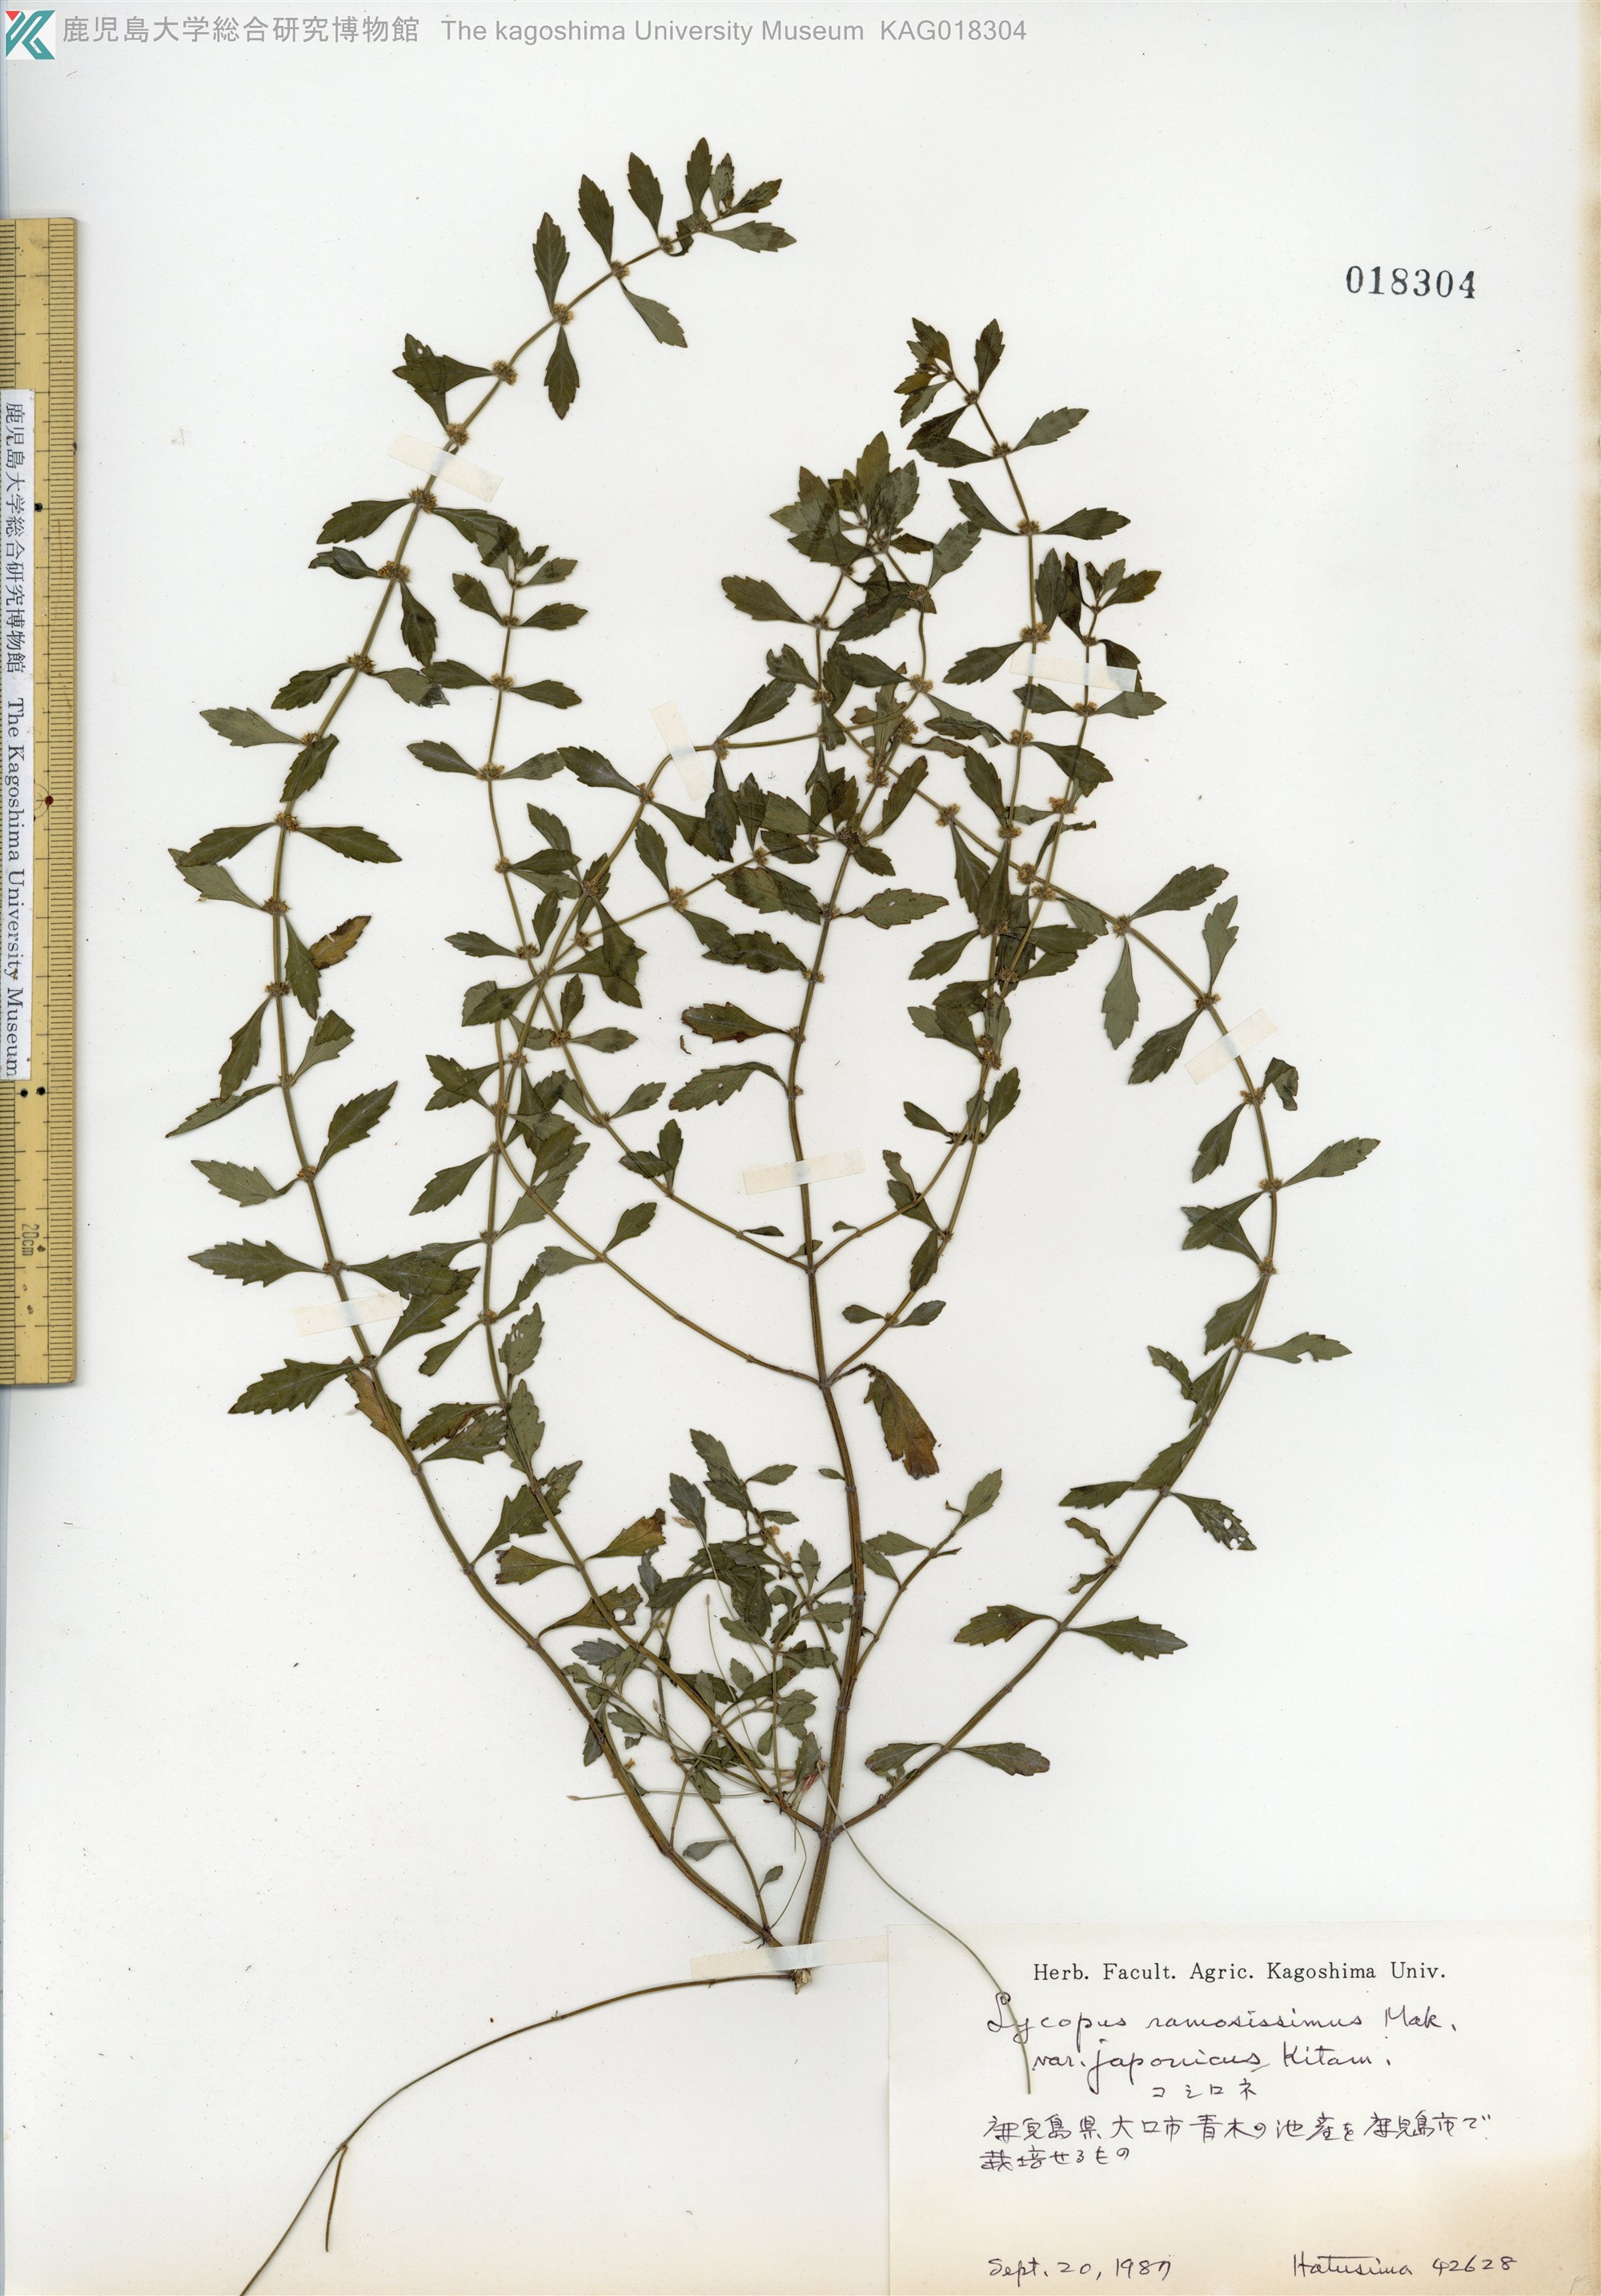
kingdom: Plantae
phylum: Tracheophyta
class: Magnoliopsida
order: Lamiales
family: Lamiaceae
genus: Lycopus
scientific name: Lycopus cavaleriei
